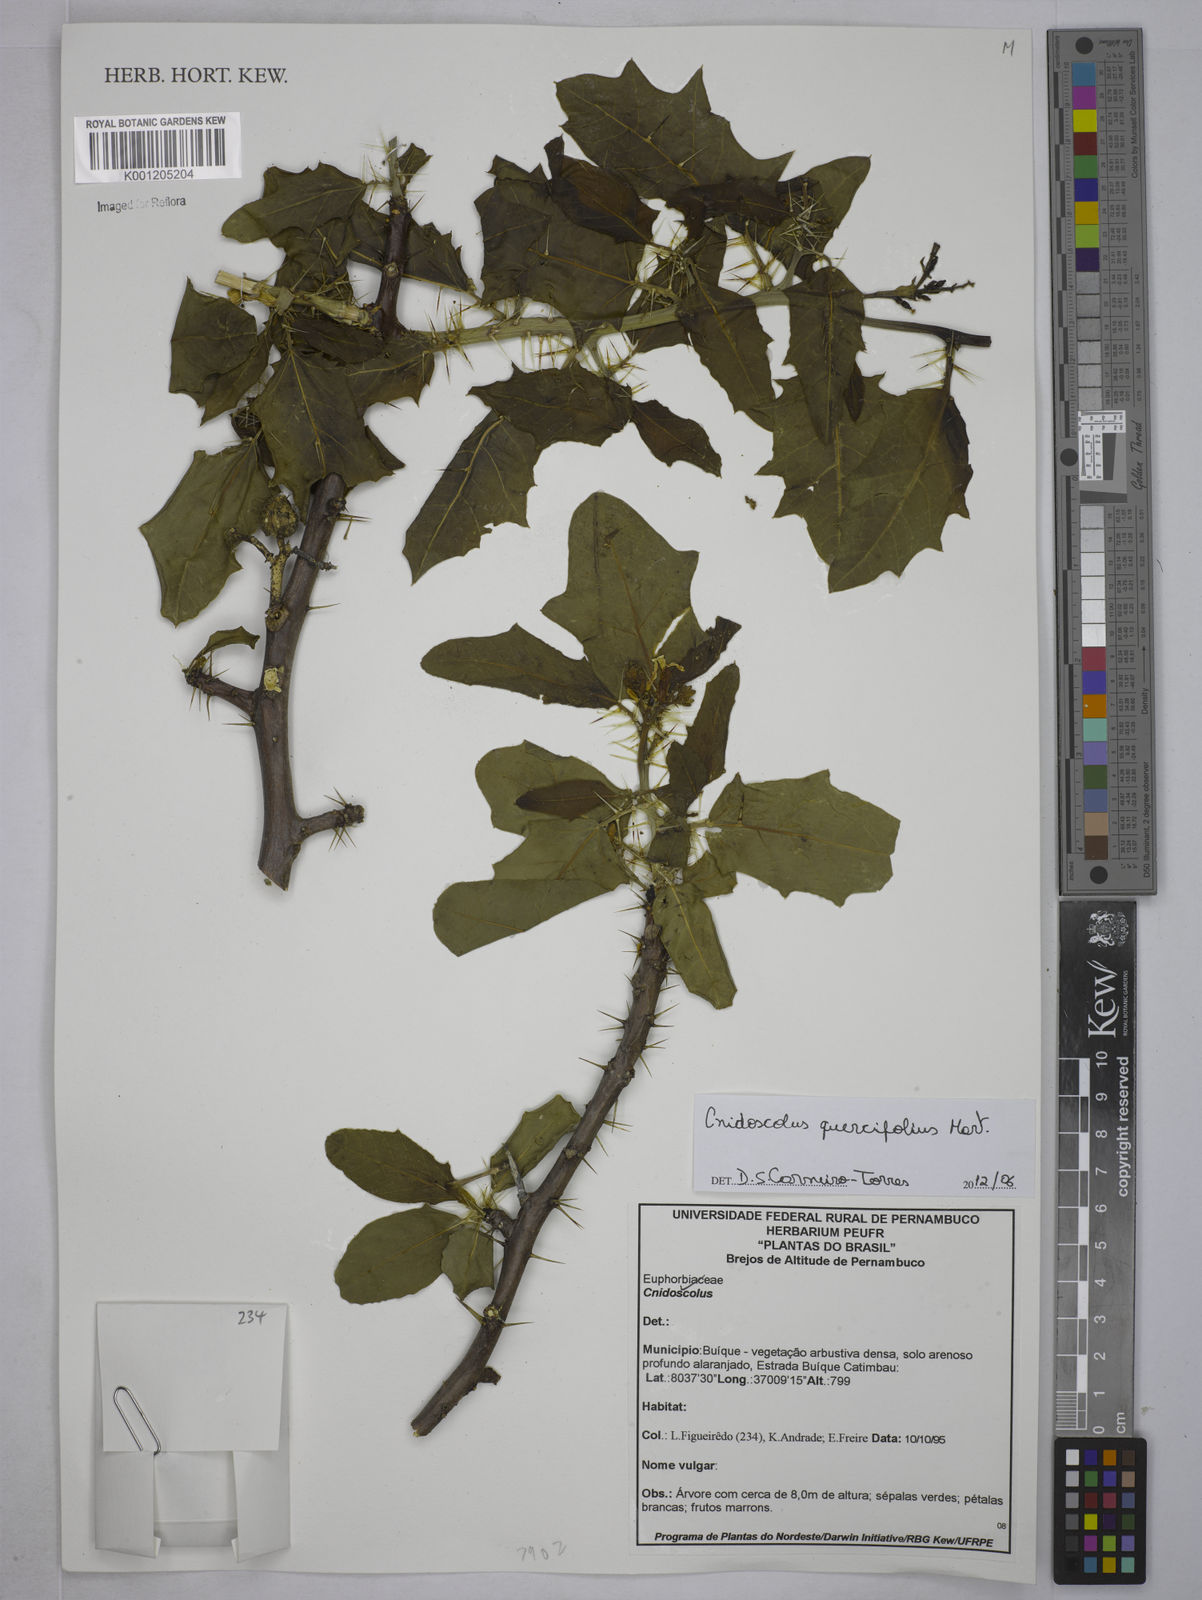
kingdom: Plantae
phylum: Tracheophyta
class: Magnoliopsida
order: Malpighiales
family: Euphorbiaceae
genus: Cnidoscolus
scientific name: Cnidoscolus quercifolius
